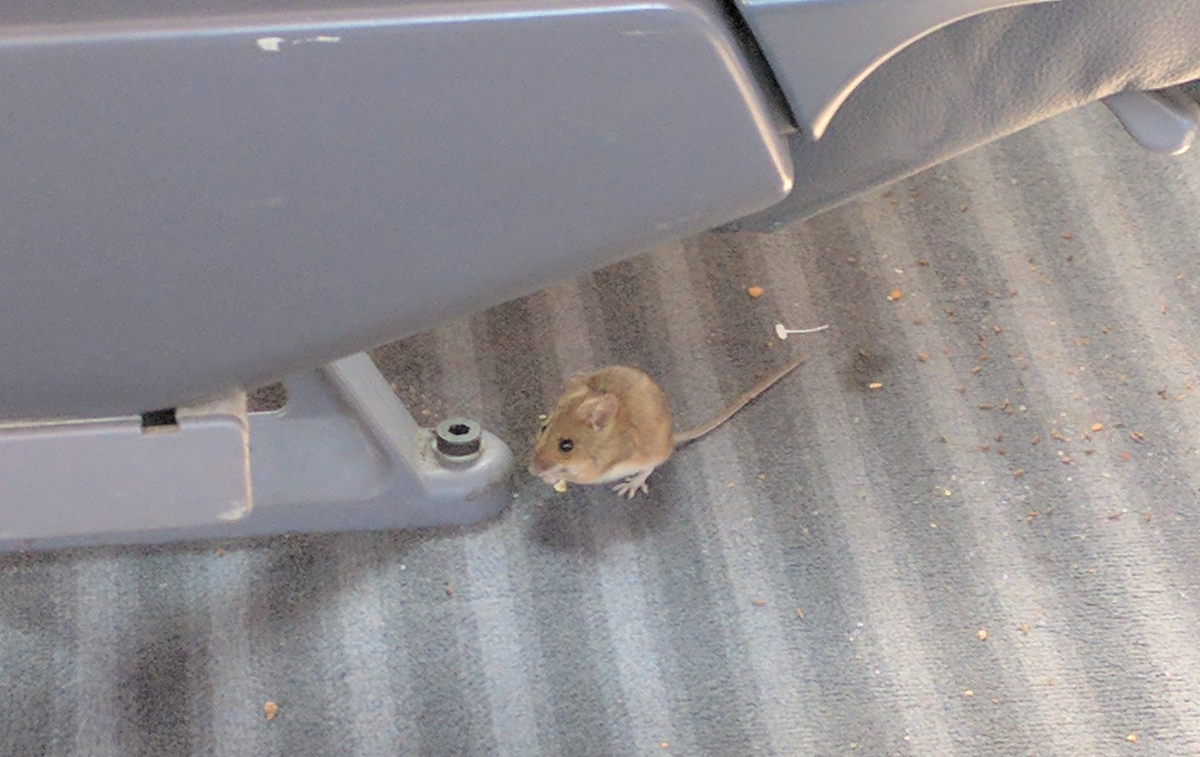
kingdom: Animalia
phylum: Chordata
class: Mammalia
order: Rodentia
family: Muridae
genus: Mus
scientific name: Mus musculus
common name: House mouse
